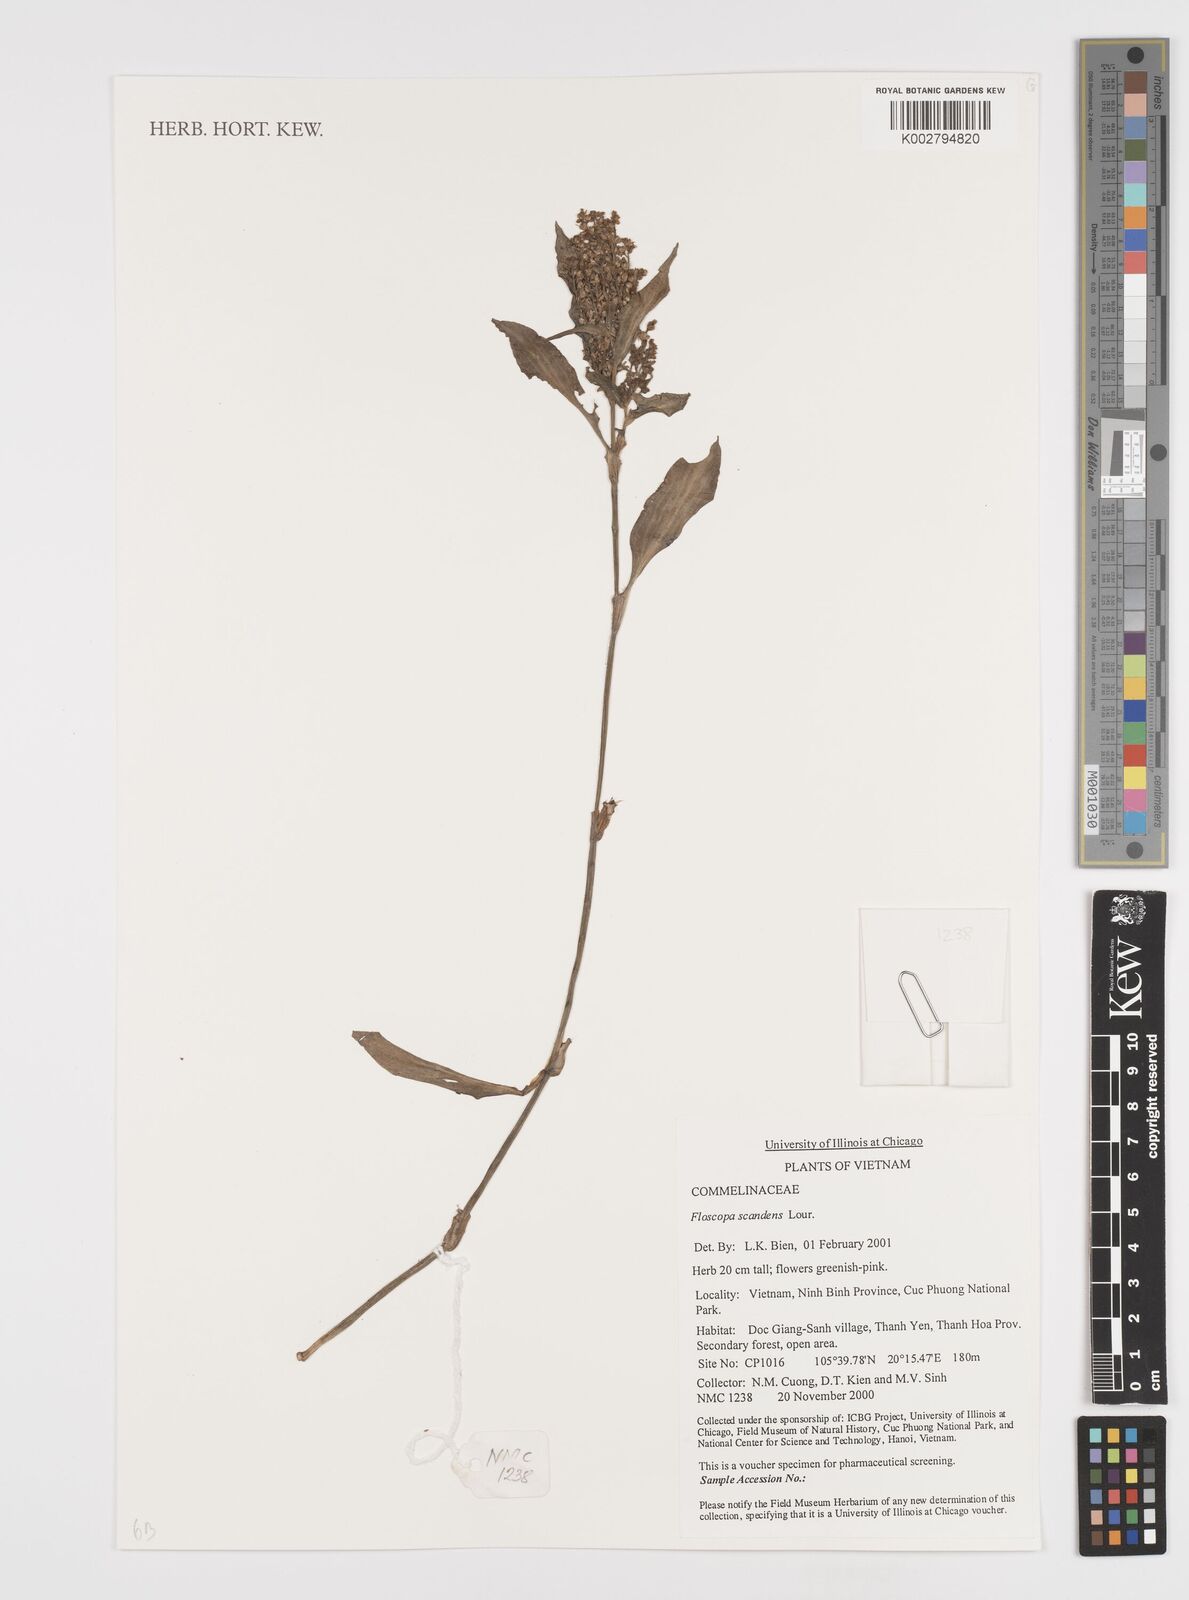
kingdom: Plantae
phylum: Tracheophyta
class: Liliopsida
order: Commelinales
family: Commelinaceae
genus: Floscopa
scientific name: Floscopa scandens
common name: Climbing flower cup
